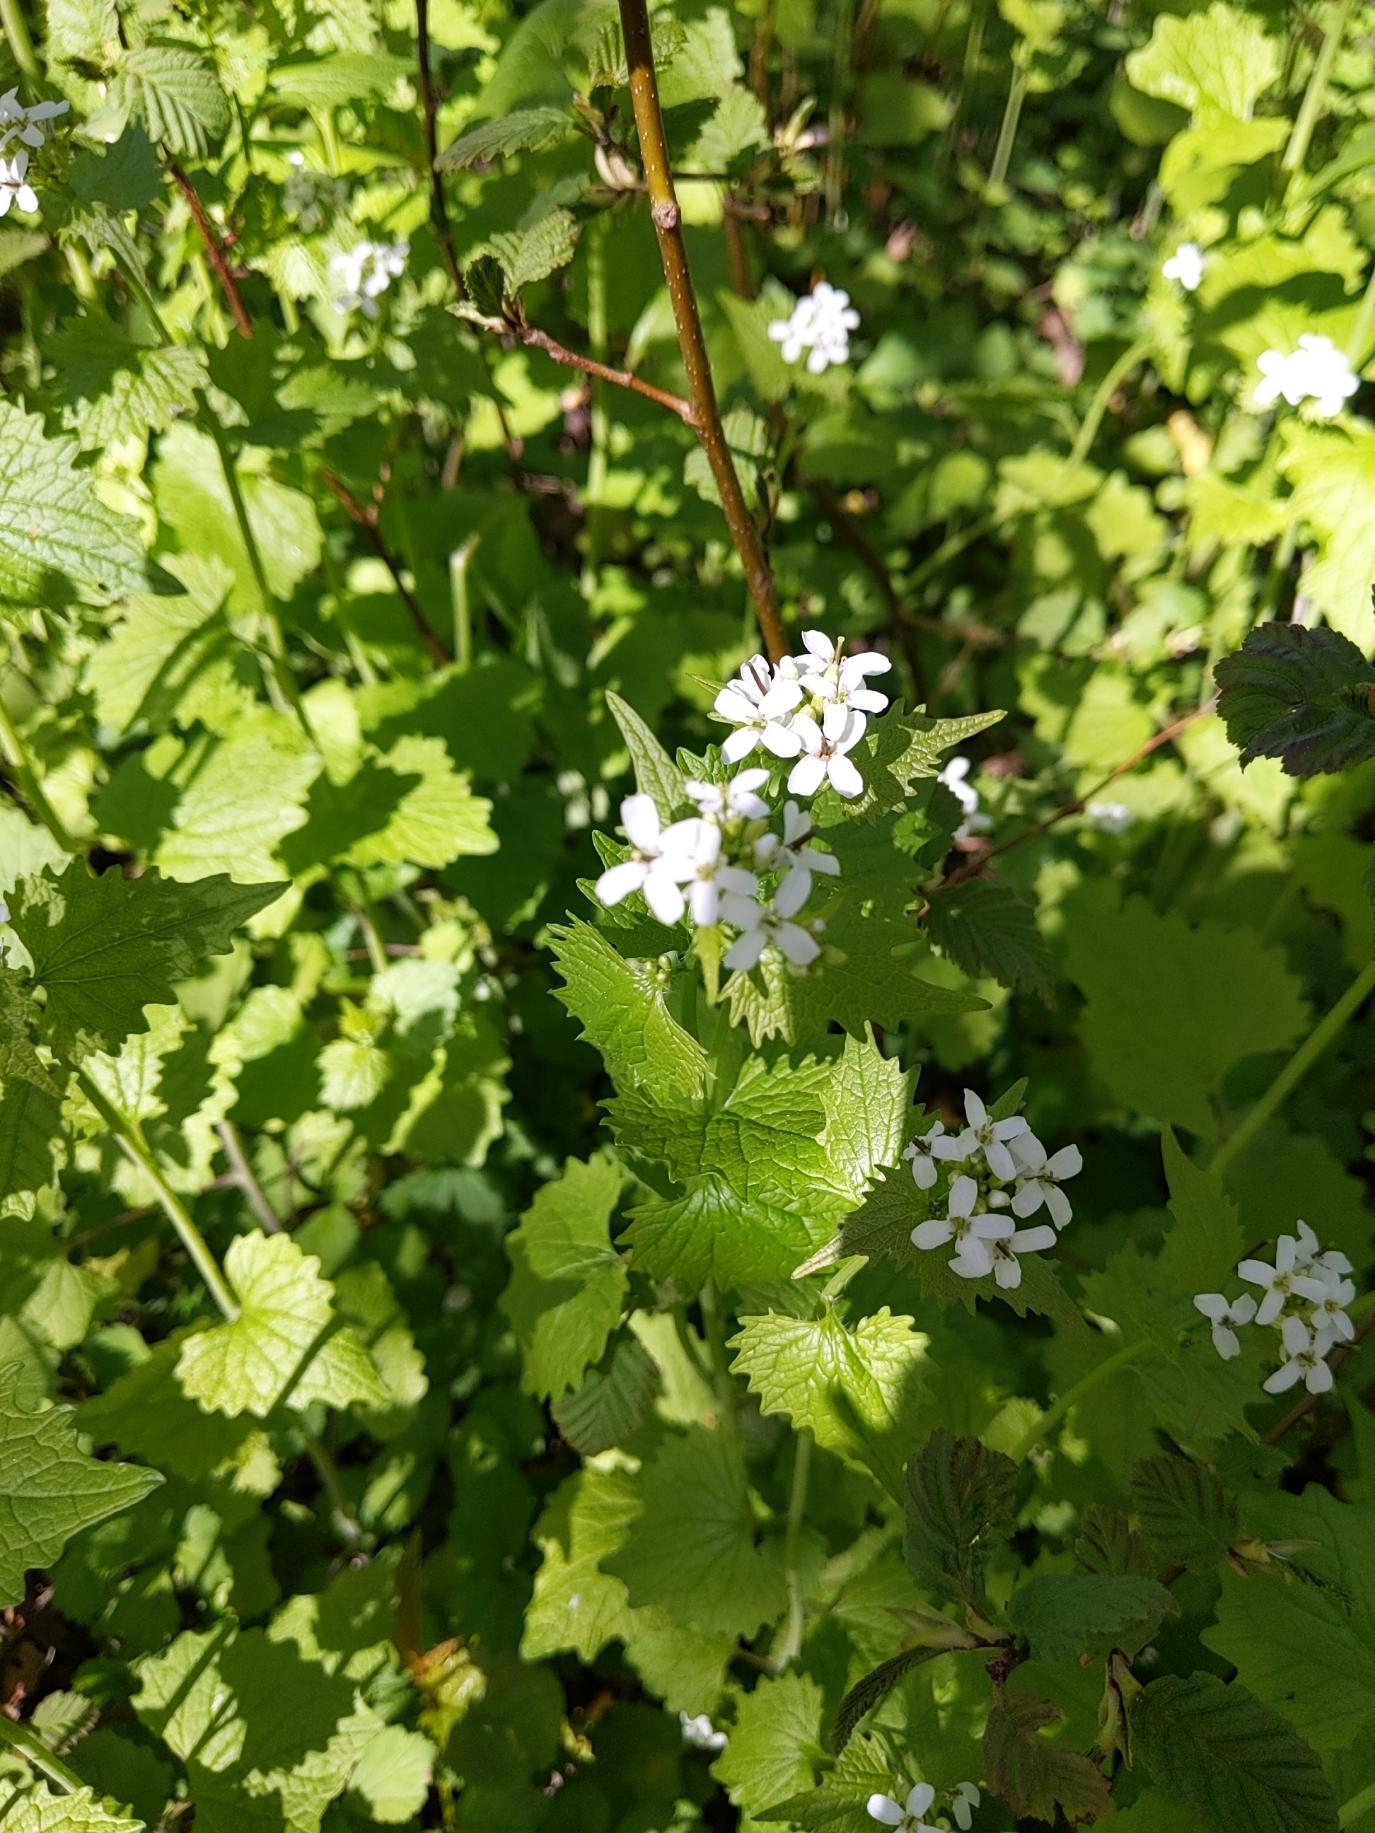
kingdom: Plantae
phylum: Tracheophyta
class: Magnoliopsida
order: Brassicales
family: Brassicaceae
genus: Alliaria
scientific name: Alliaria petiolata
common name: Løgkarse
